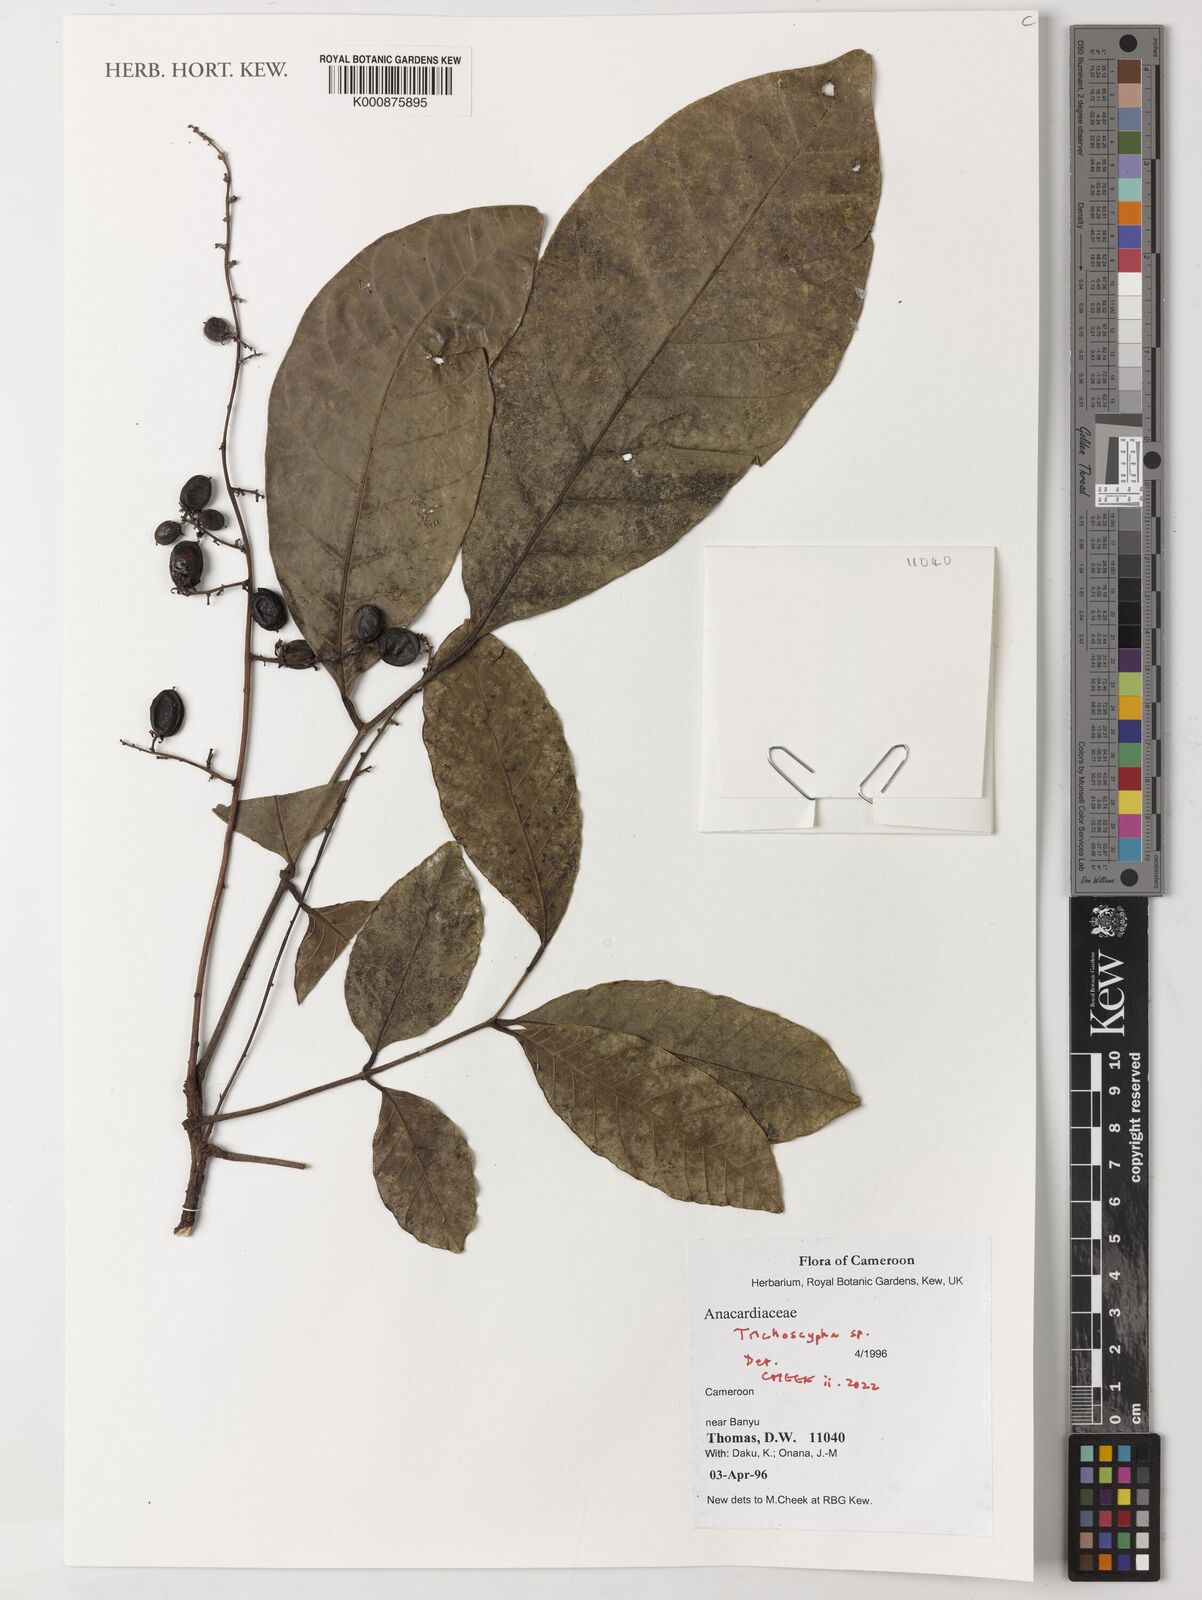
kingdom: Plantae
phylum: Tracheophyta
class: Magnoliopsida
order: Sapindales
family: Anacardiaceae
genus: Trichoscypha
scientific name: Trichoscypha
